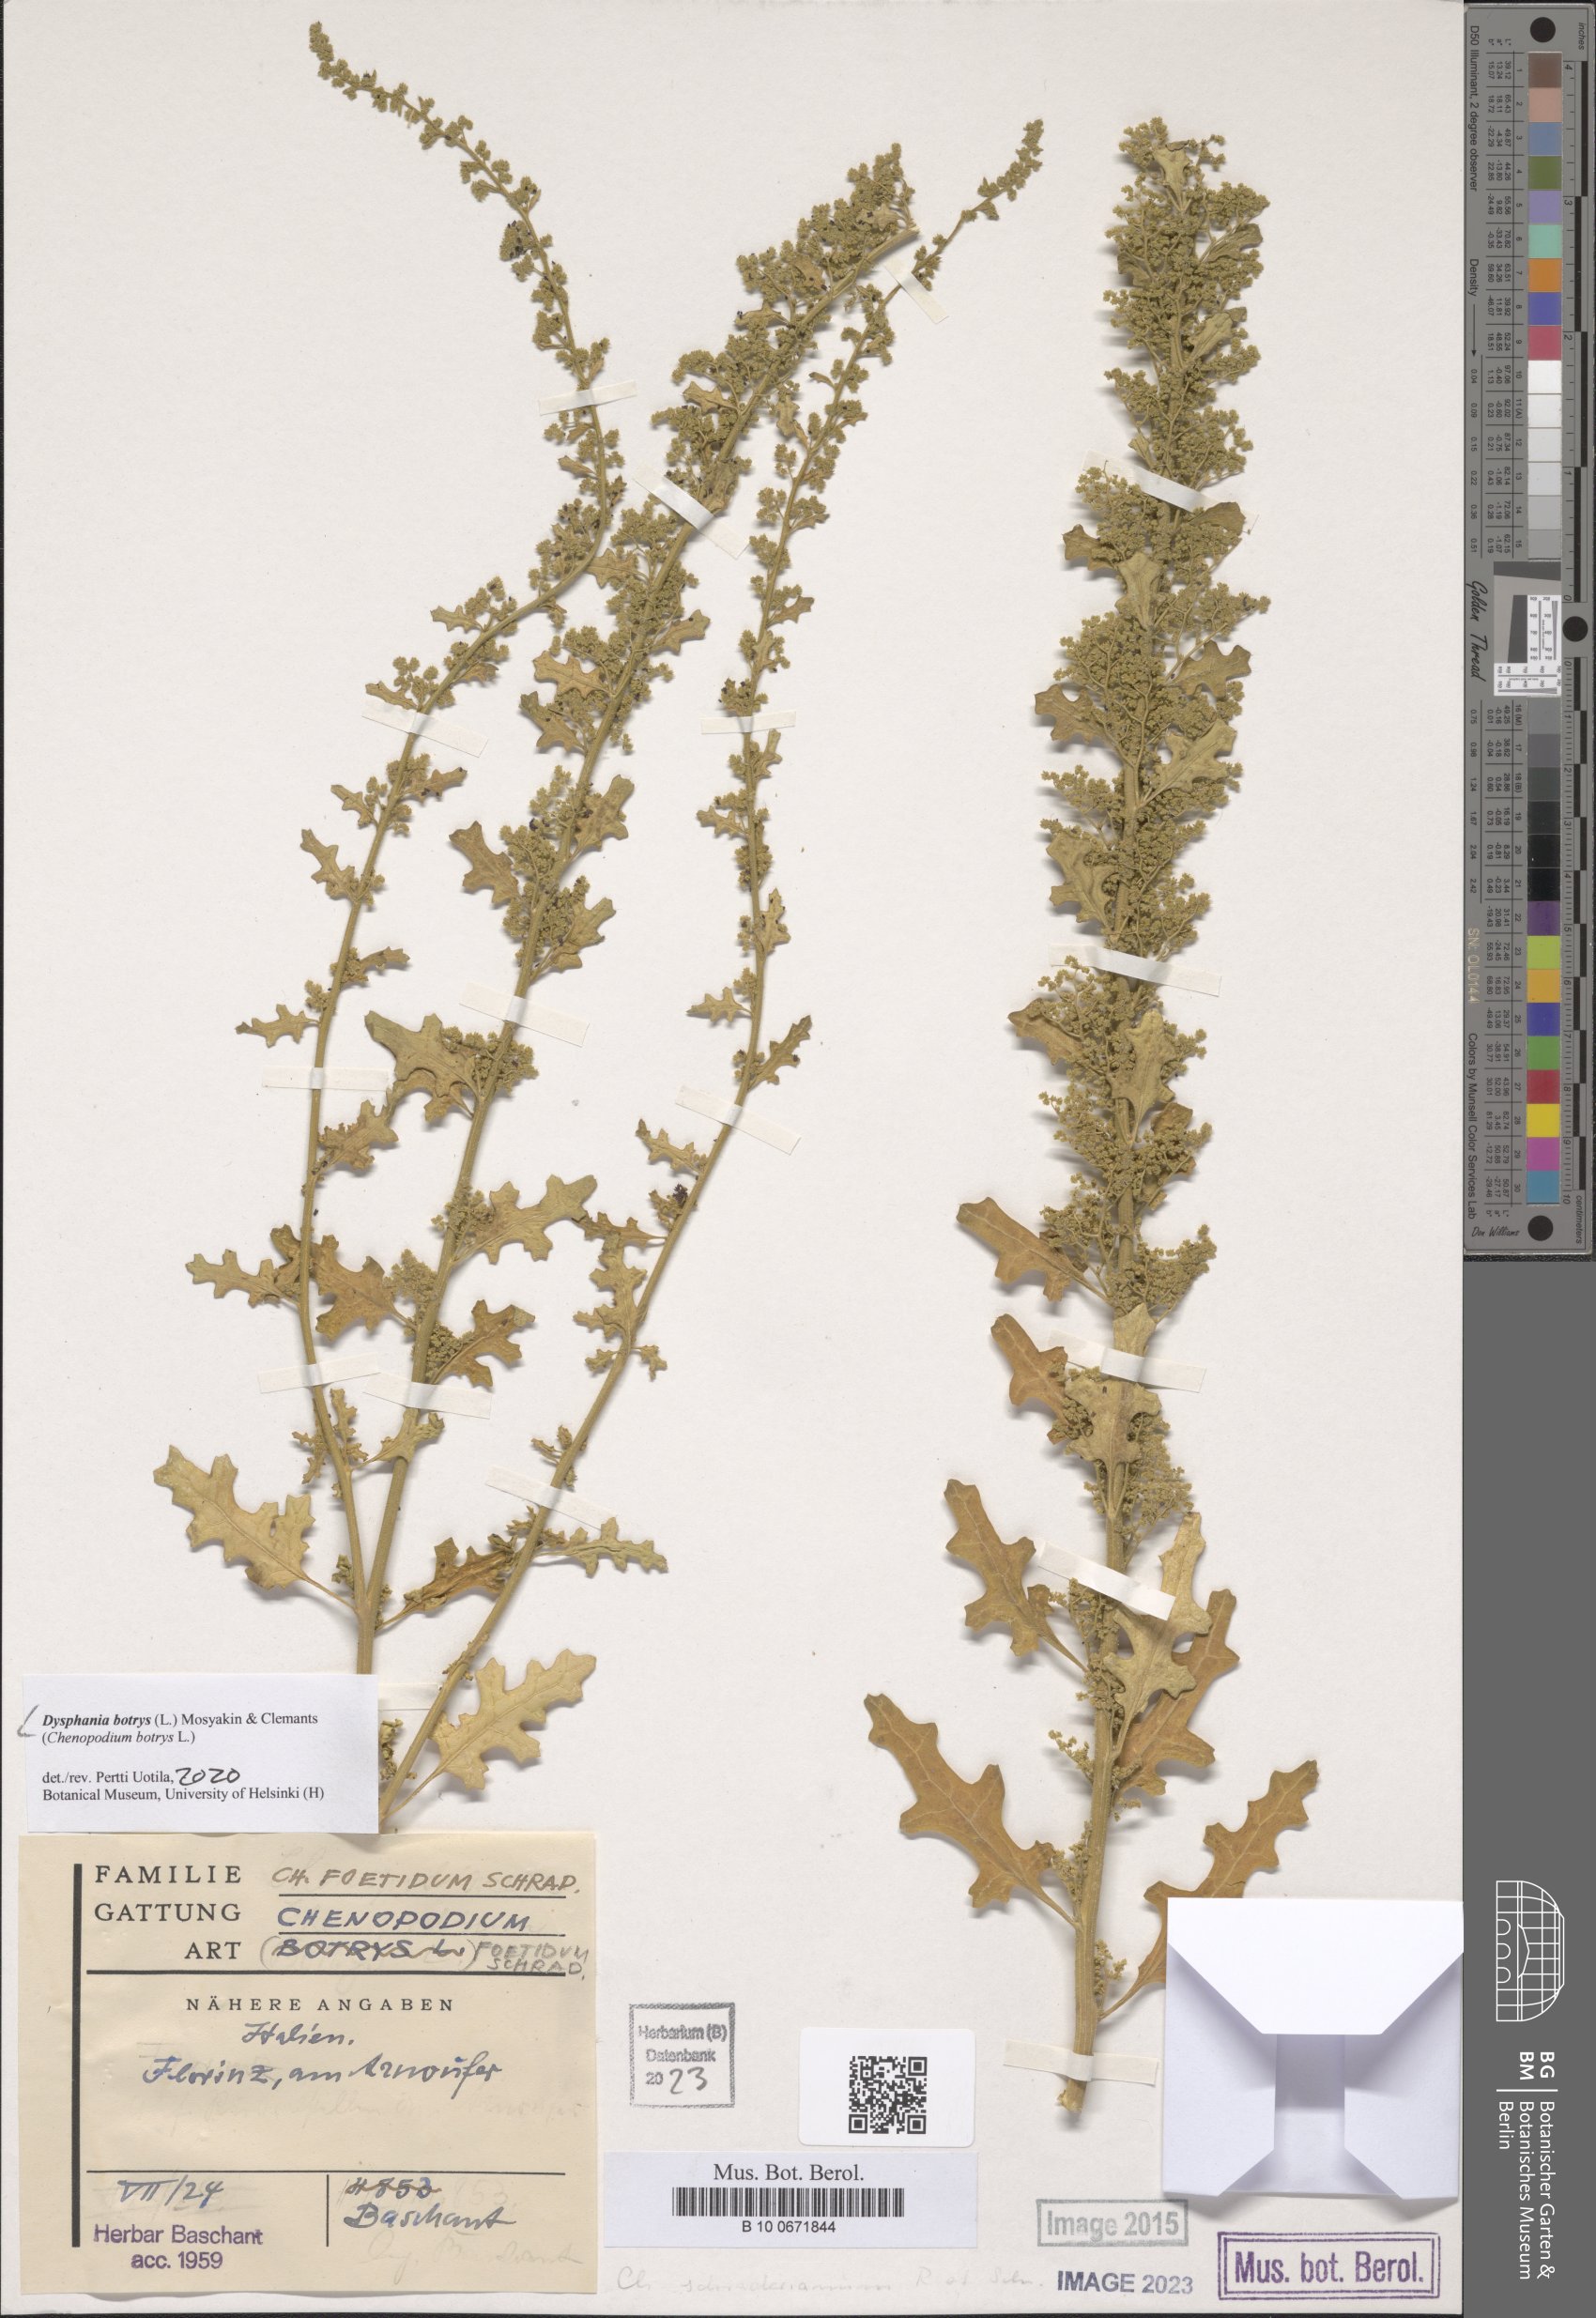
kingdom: Plantae
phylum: Tracheophyta
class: Liliopsida
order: Poales
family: Poaceae
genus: Aegilops
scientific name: Aegilops neglecta
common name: Three-awn goat grass
